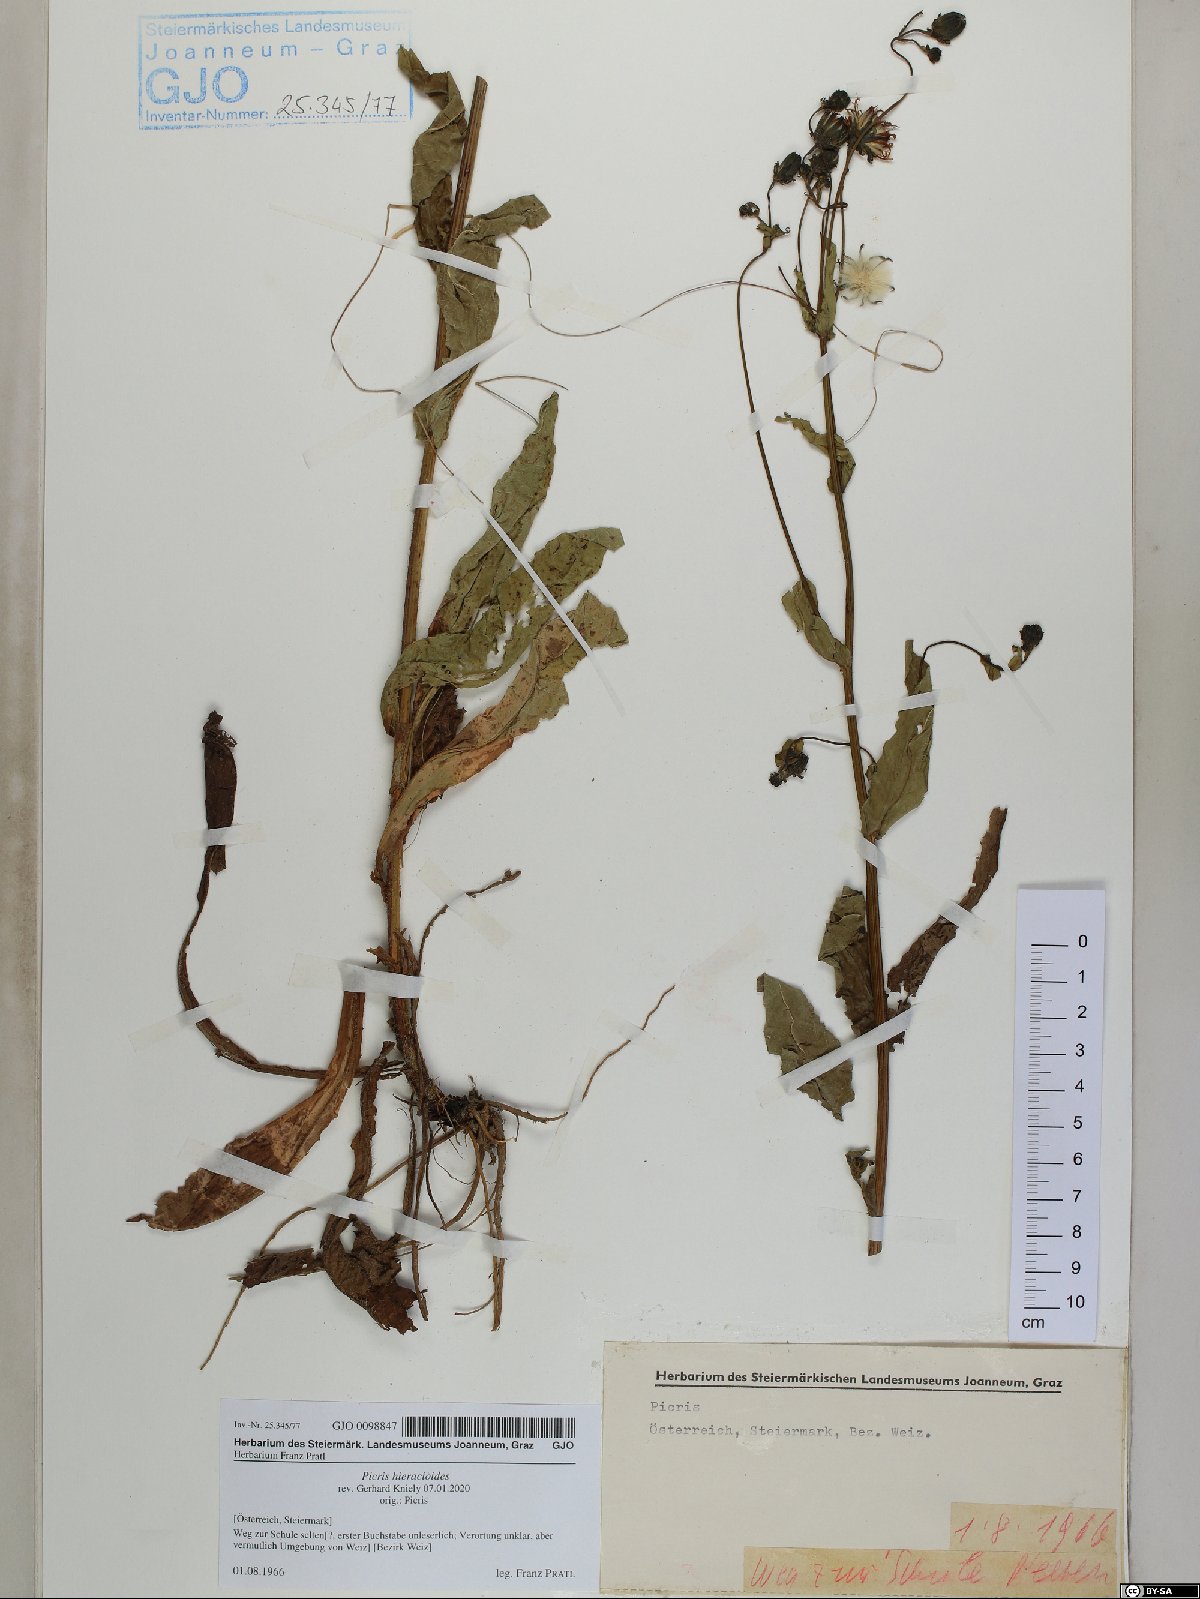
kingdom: Plantae
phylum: Tracheophyta
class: Magnoliopsida
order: Asterales
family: Asteraceae
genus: Picris
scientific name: Picris hieracioides
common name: Hawkweed oxtongue
